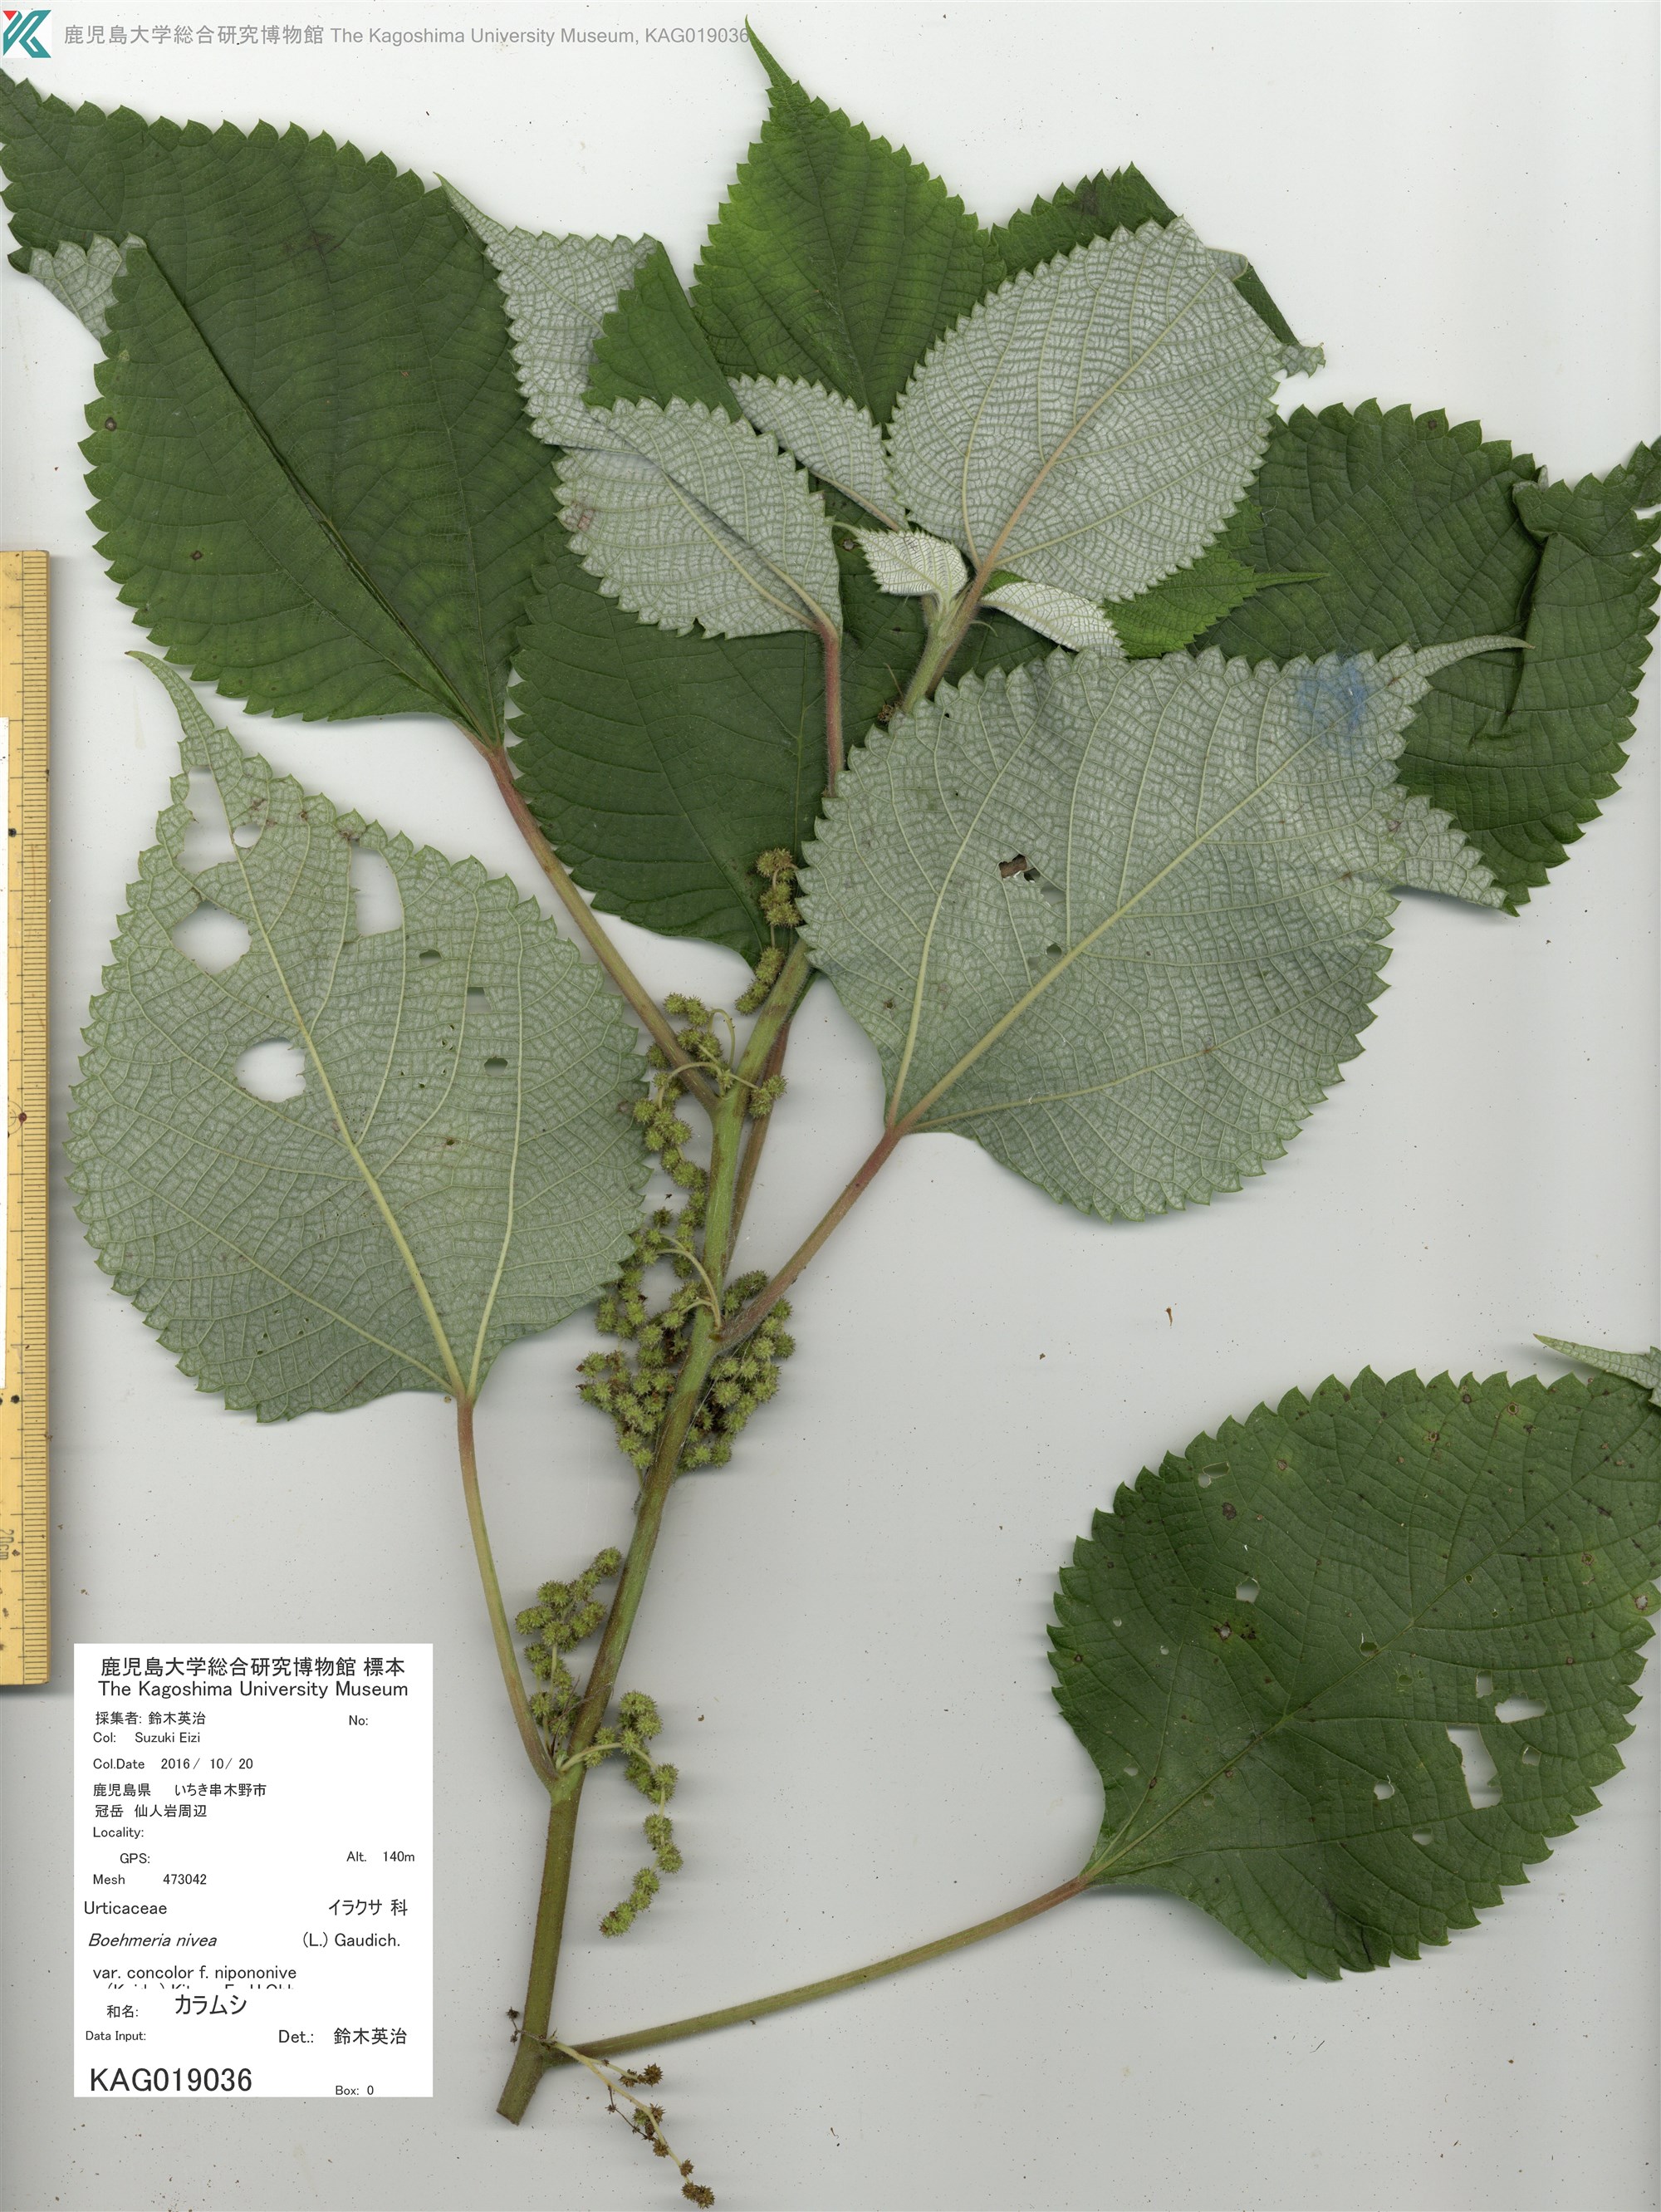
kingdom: Plantae
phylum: Tracheophyta
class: Magnoliopsida
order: Rosales
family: Urticaceae
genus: Boehmeria
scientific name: Boehmeria nivea
